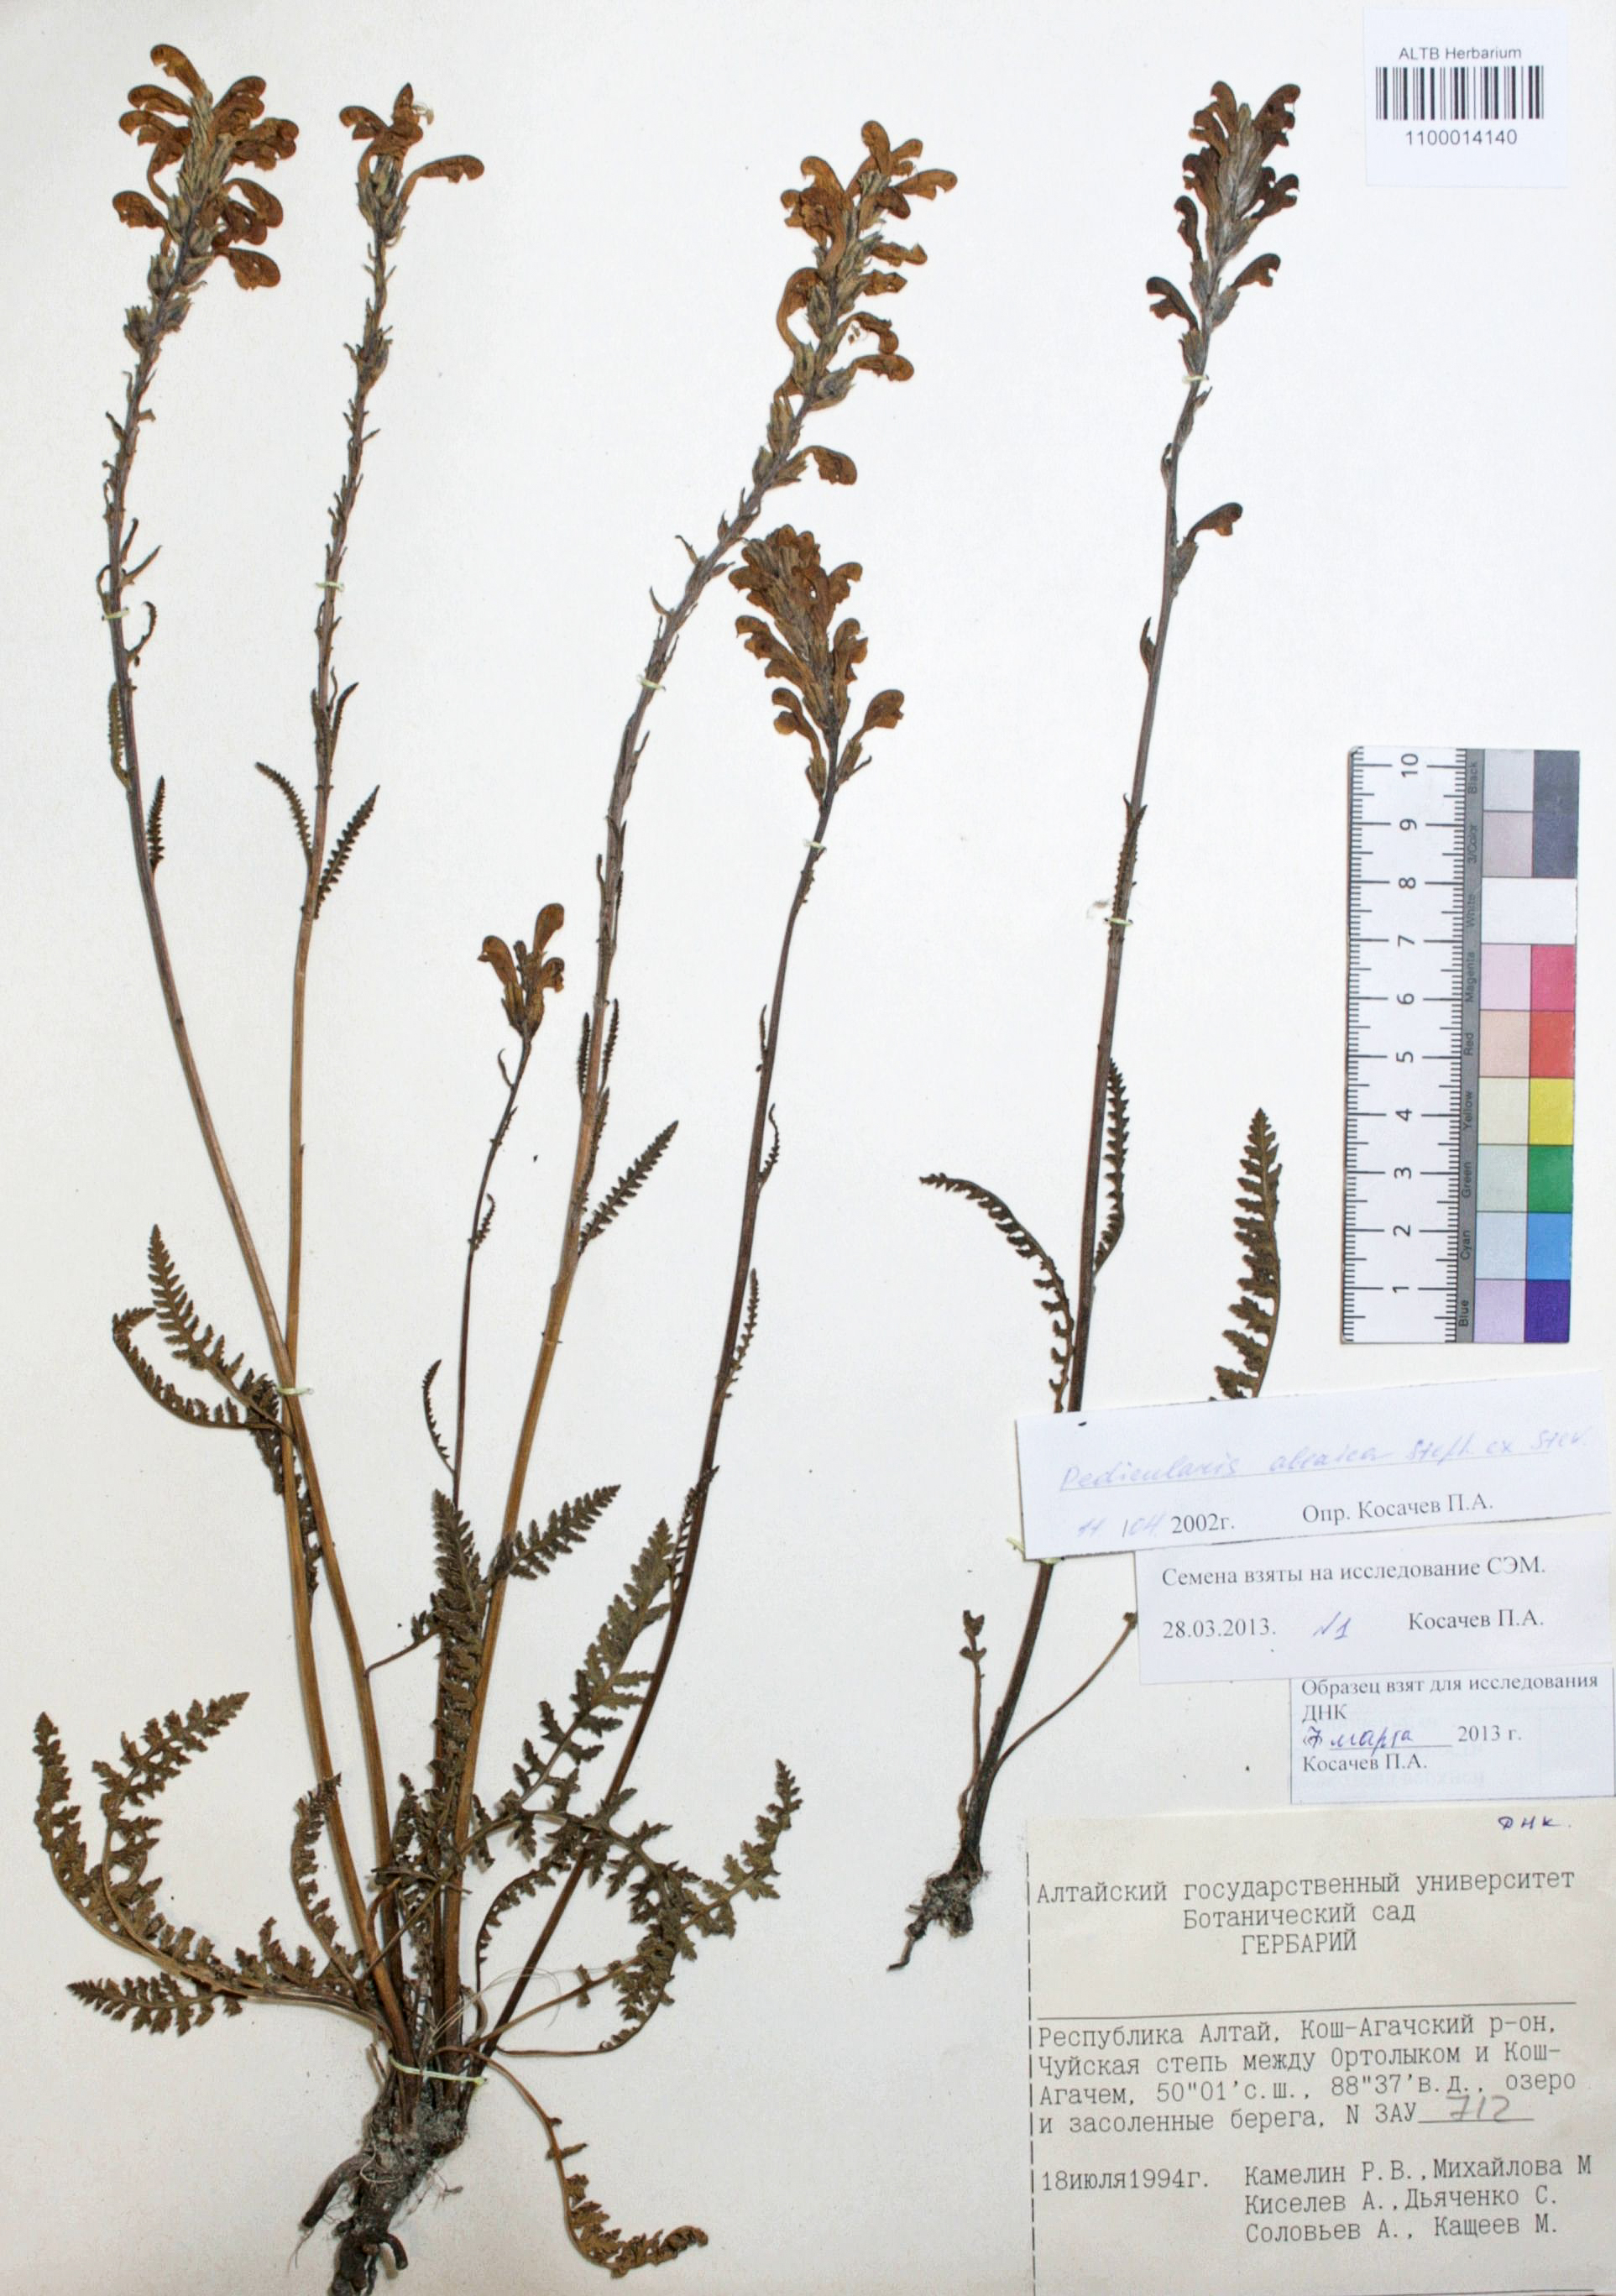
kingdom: Plantae
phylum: Tracheophyta
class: Magnoliopsida
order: Lamiales
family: Orobanchaceae
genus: Pedicularis
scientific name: Pedicularis altaica
